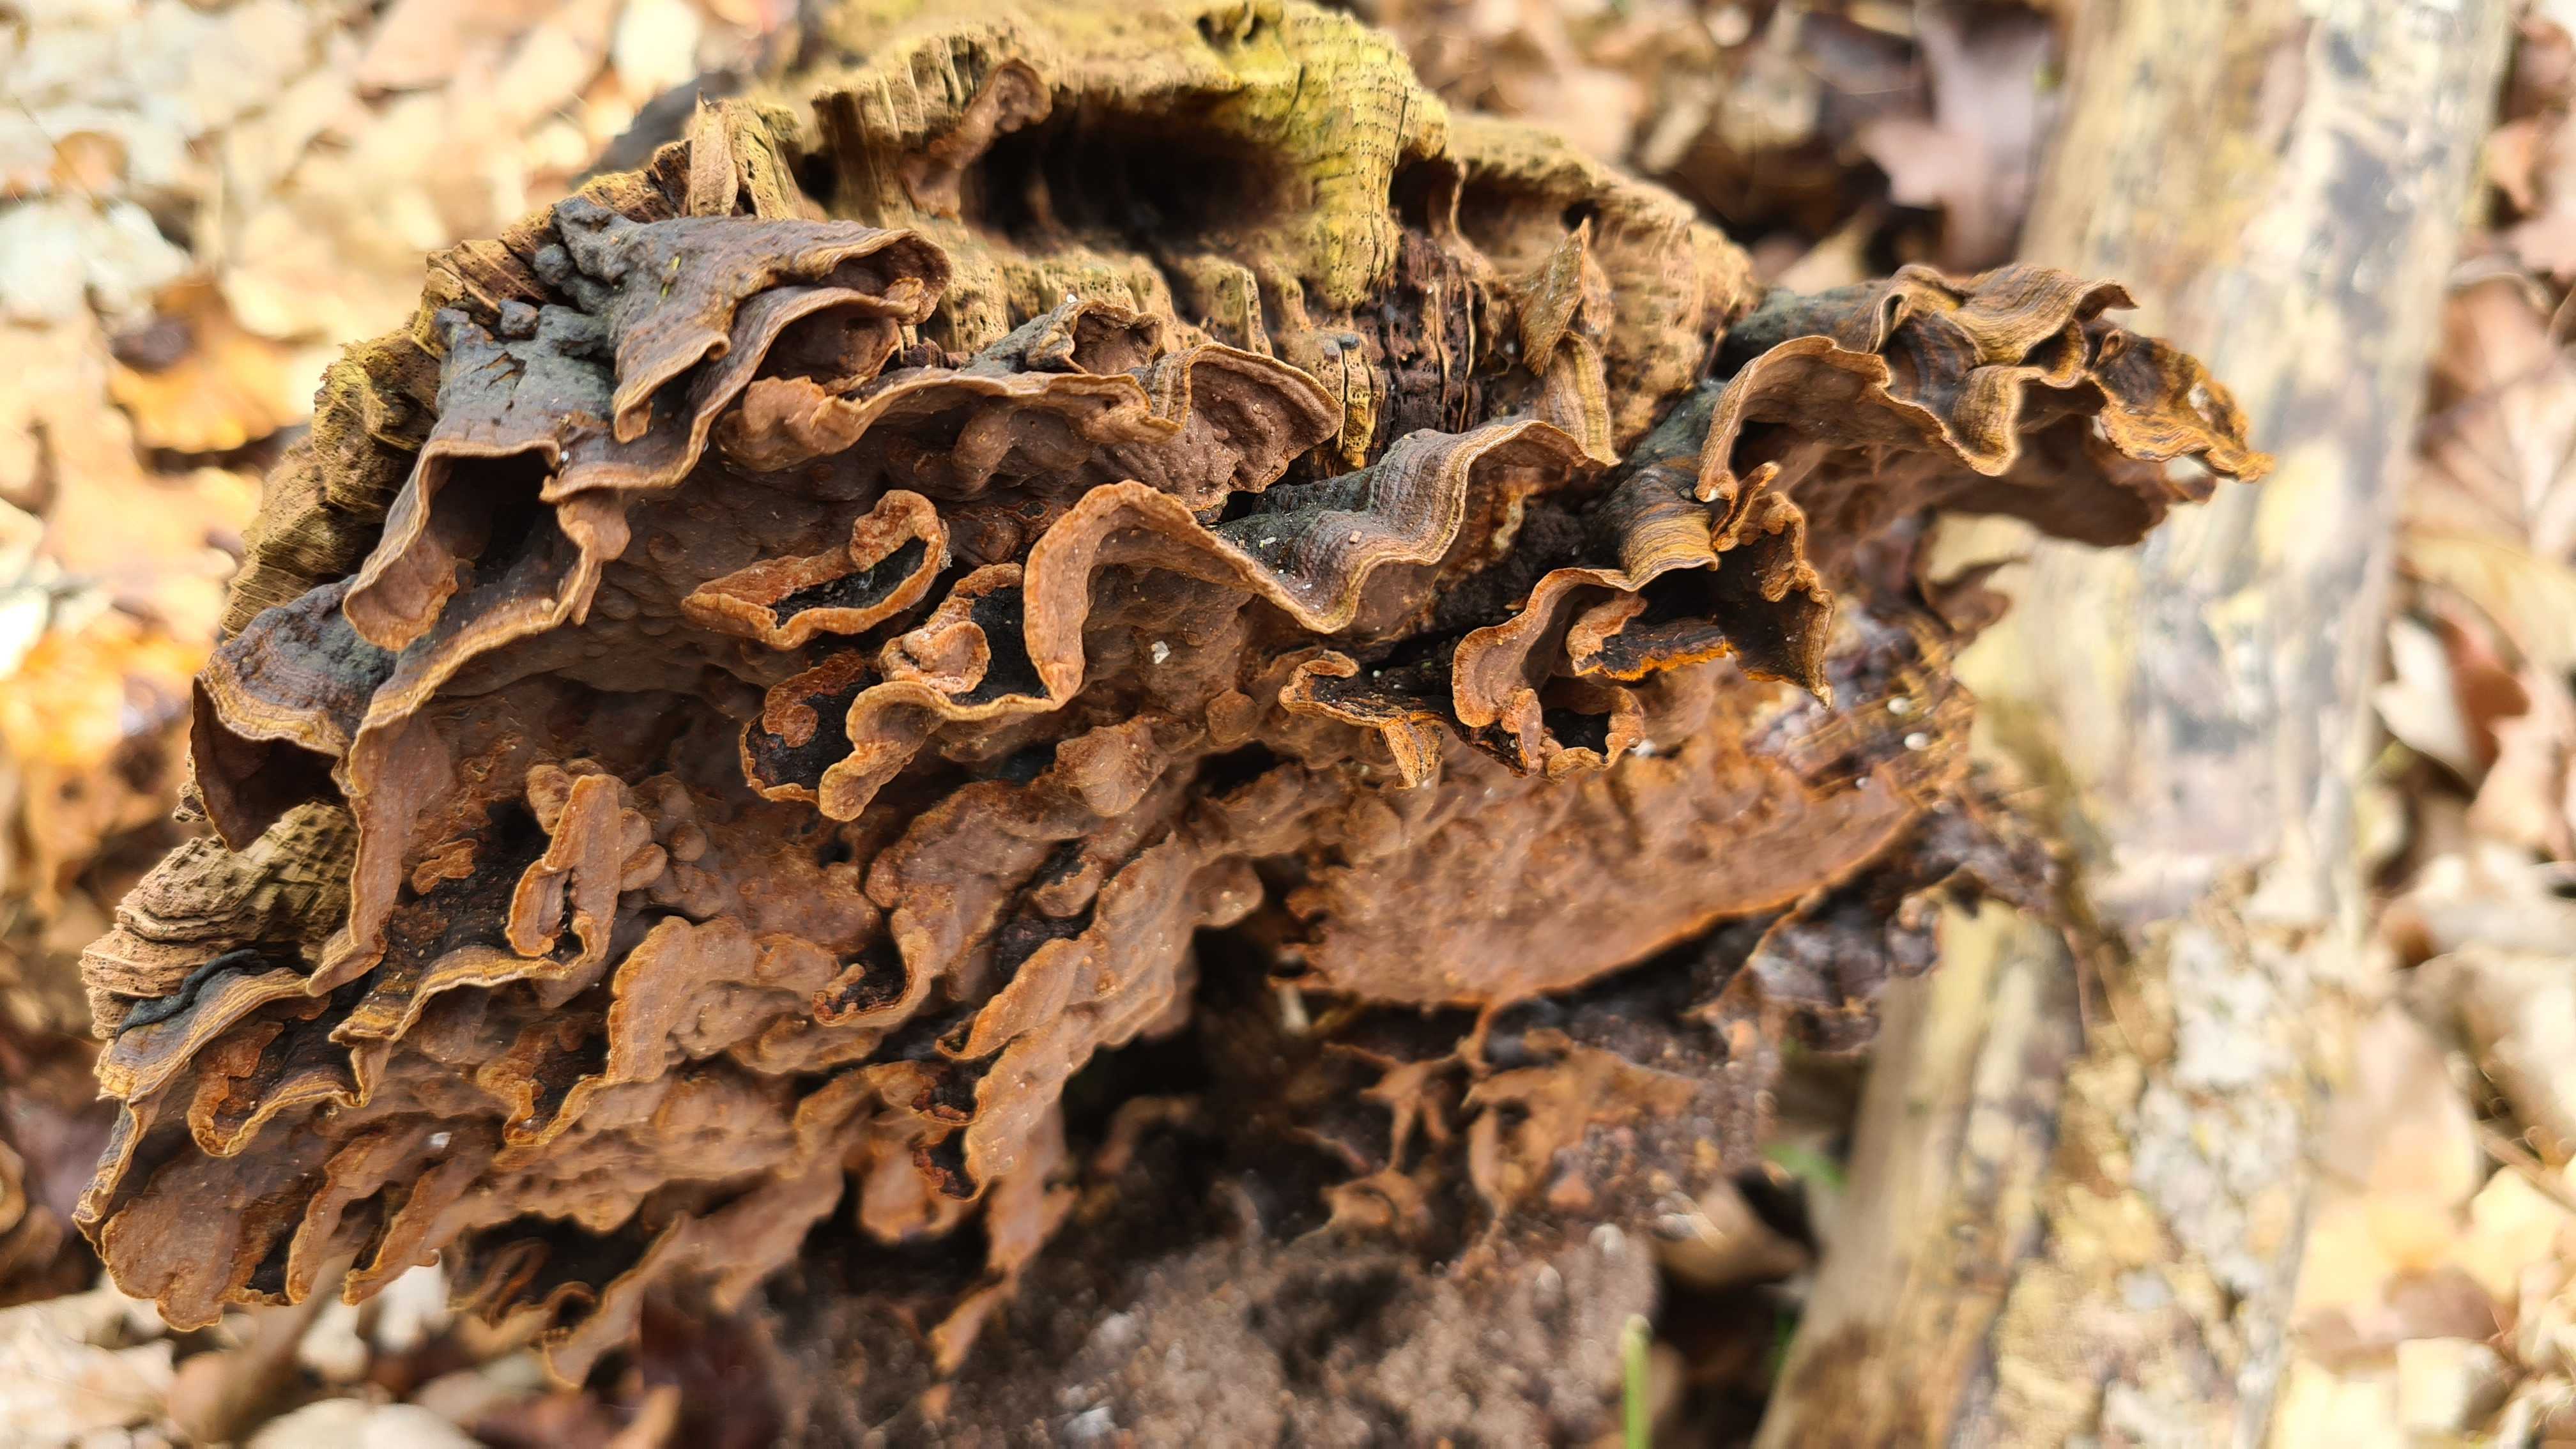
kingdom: Fungi
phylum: Basidiomycota
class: Agaricomycetes
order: Hymenochaetales
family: Hymenochaetaceae
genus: Hymenochaete
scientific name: Hymenochaete rubiginosa
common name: stiv ruslædersvamp
